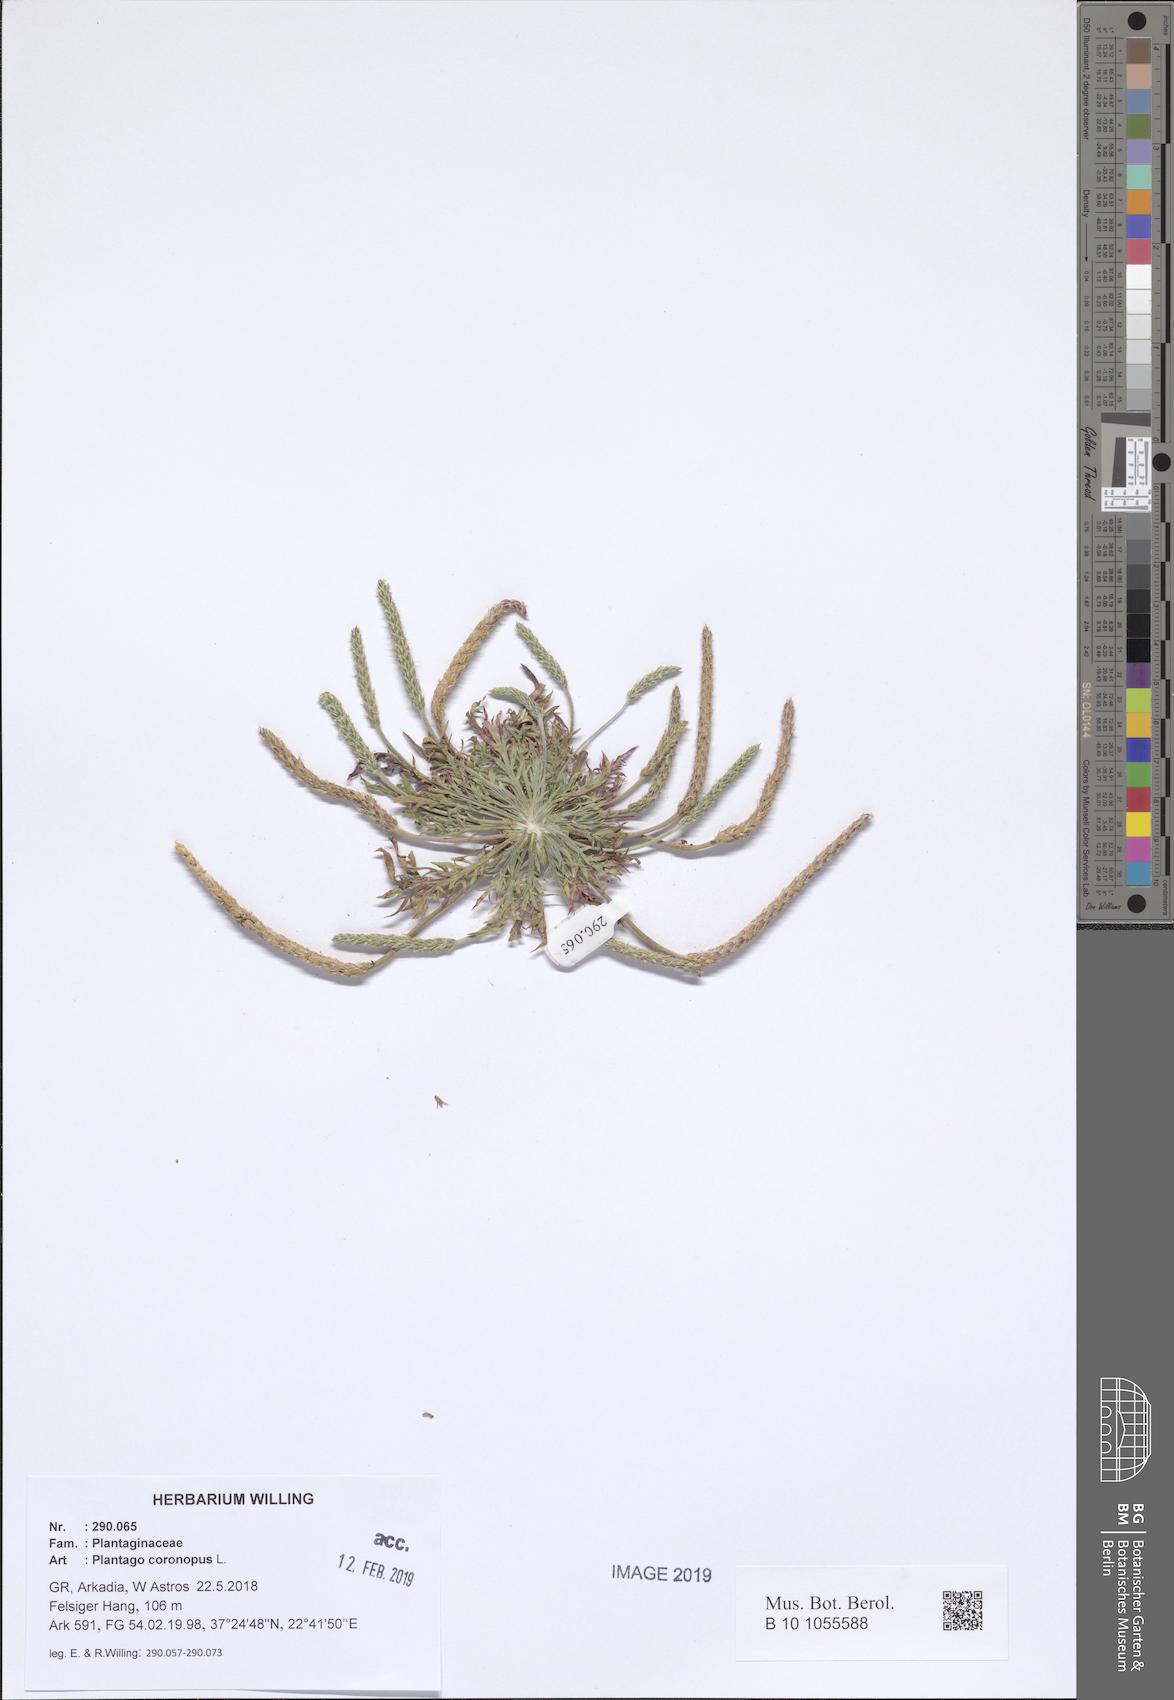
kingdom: Plantae
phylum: Tracheophyta
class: Magnoliopsida
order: Lamiales
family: Plantaginaceae
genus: Plantago
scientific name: Plantago coronopus
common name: Buck's-horn plantain
